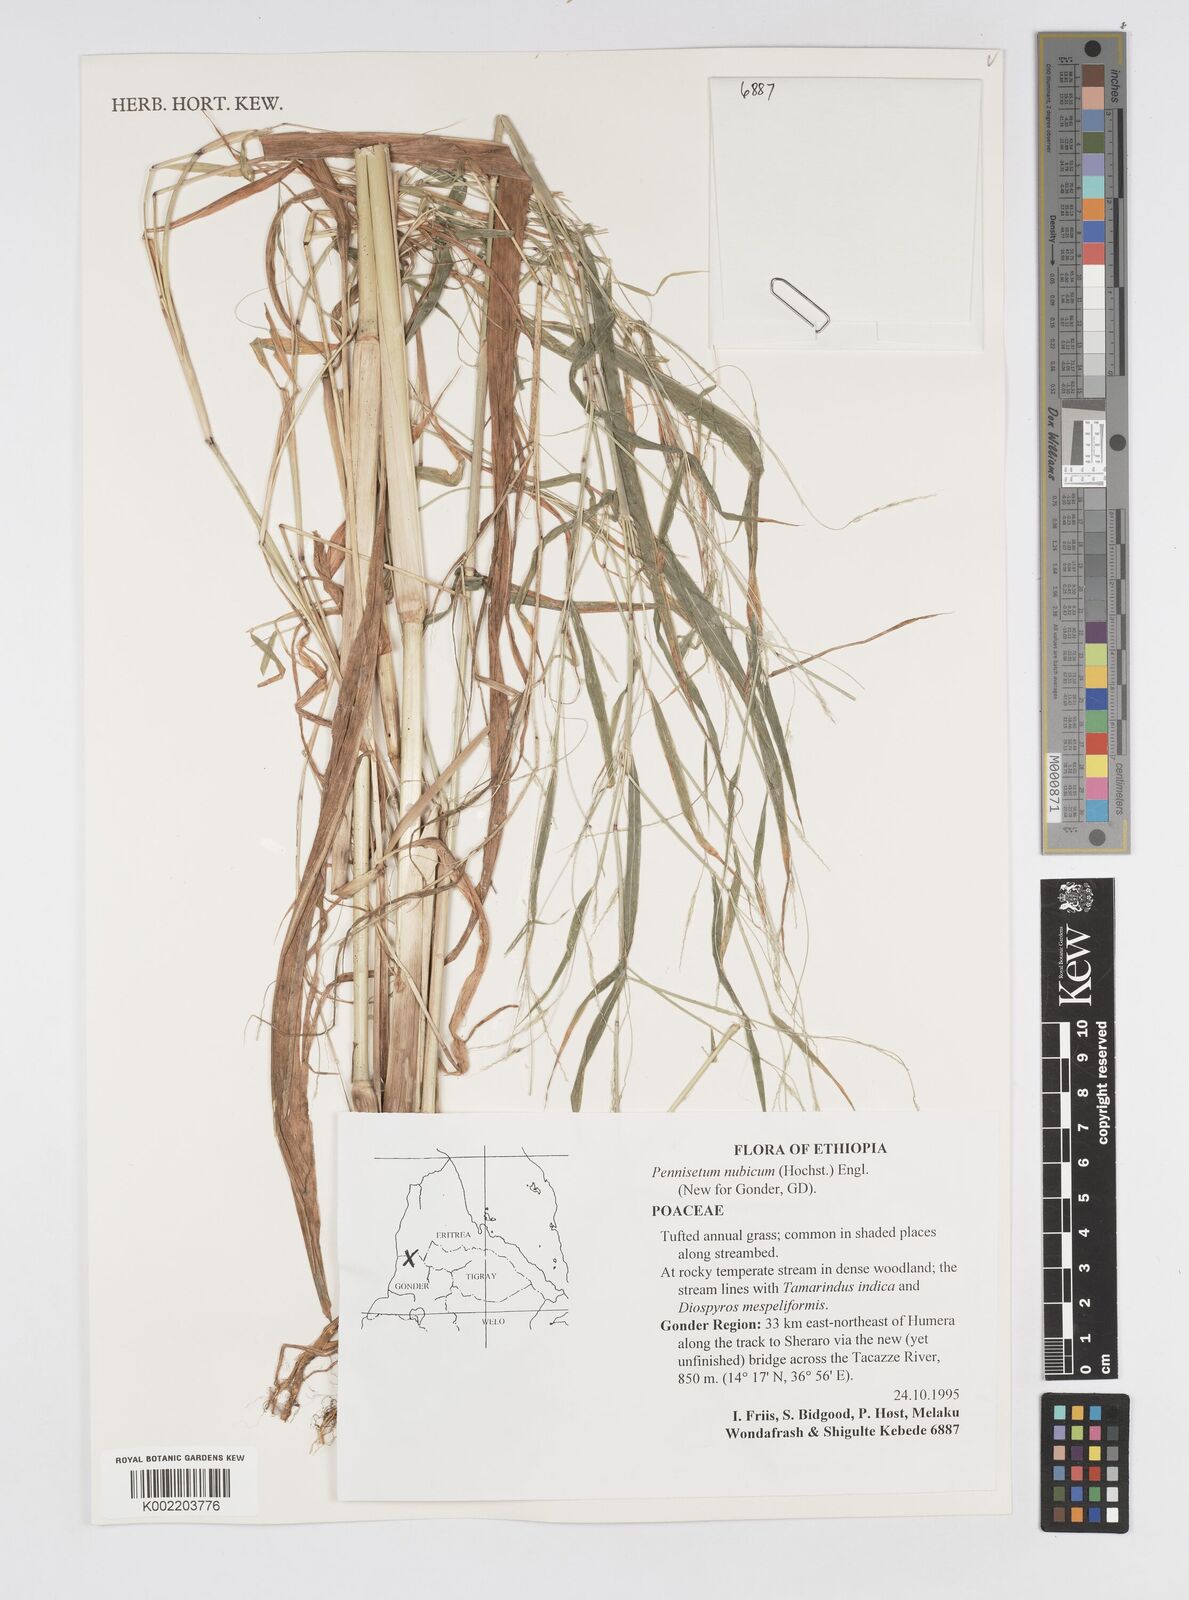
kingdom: Plantae
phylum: Tracheophyta
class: Liliopsida
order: Poales
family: Poaceae
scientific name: Poaceae
